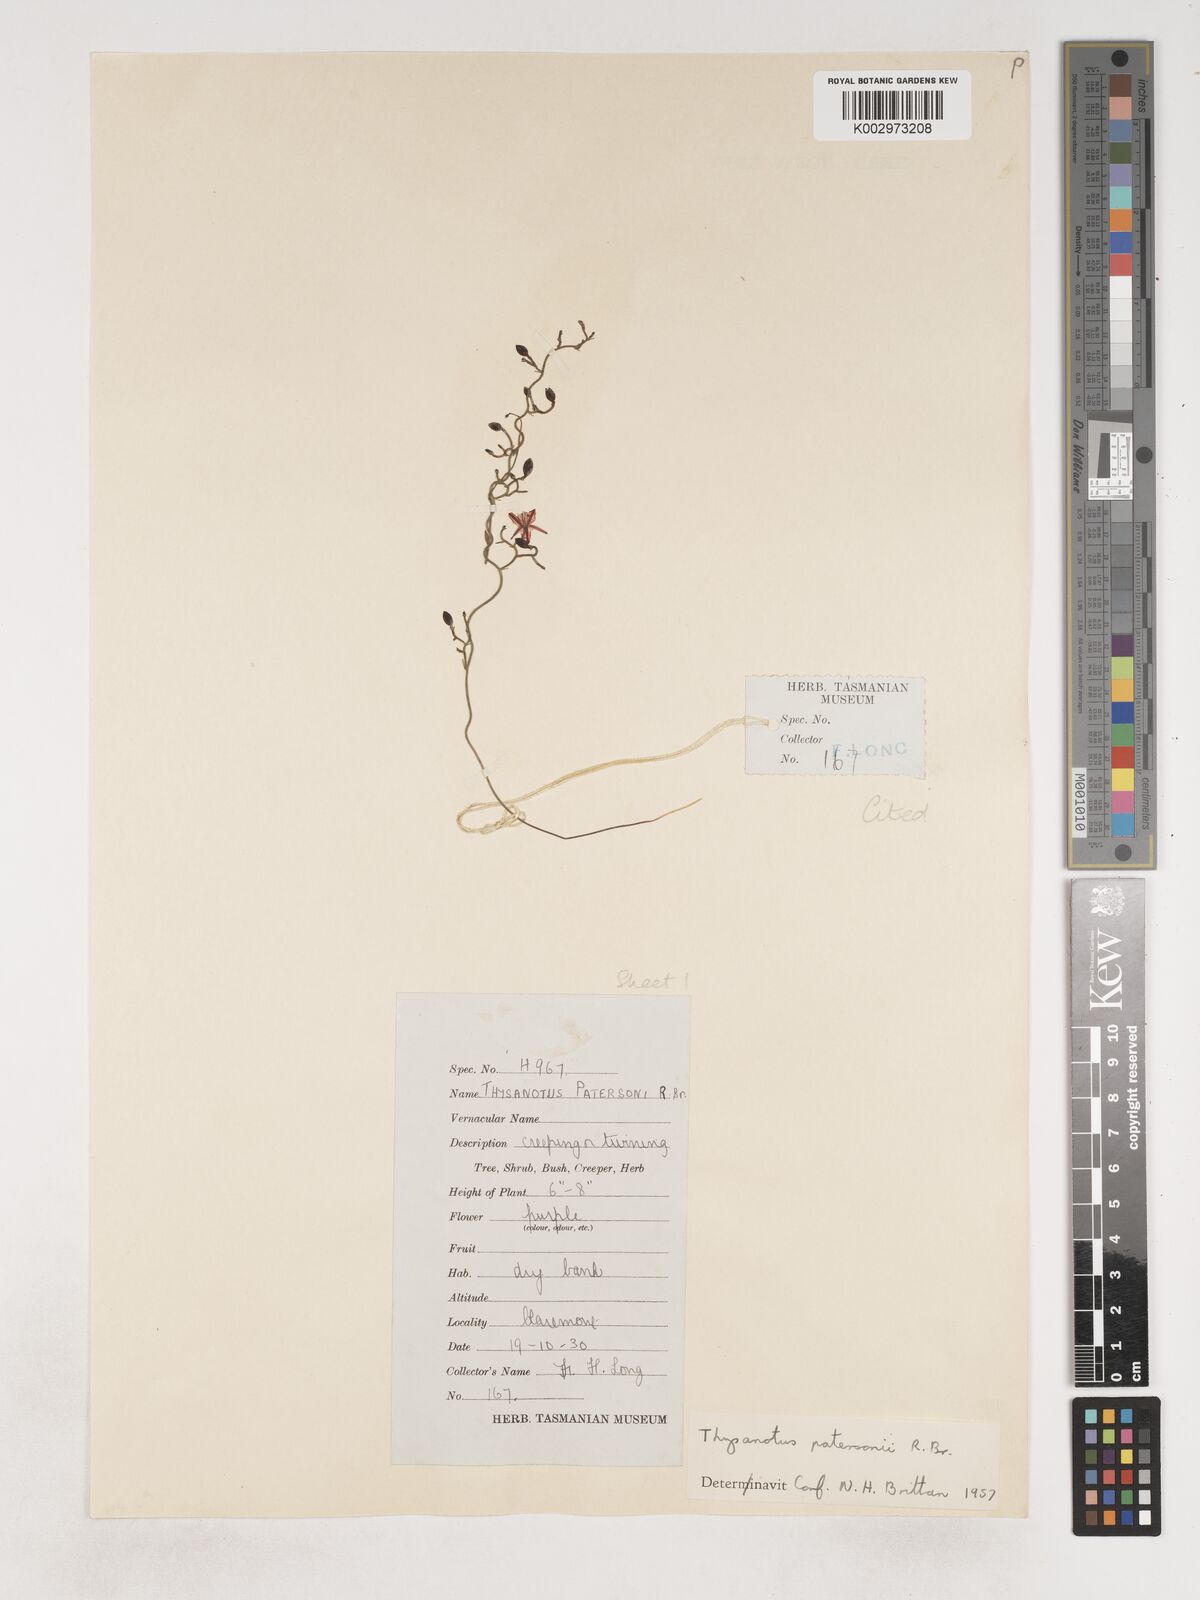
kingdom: Plantae
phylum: Tracheophyta
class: Liliopsida
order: Asparagales
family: Asparagaceae
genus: Thysanotus
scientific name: Thysanotus patersonii
